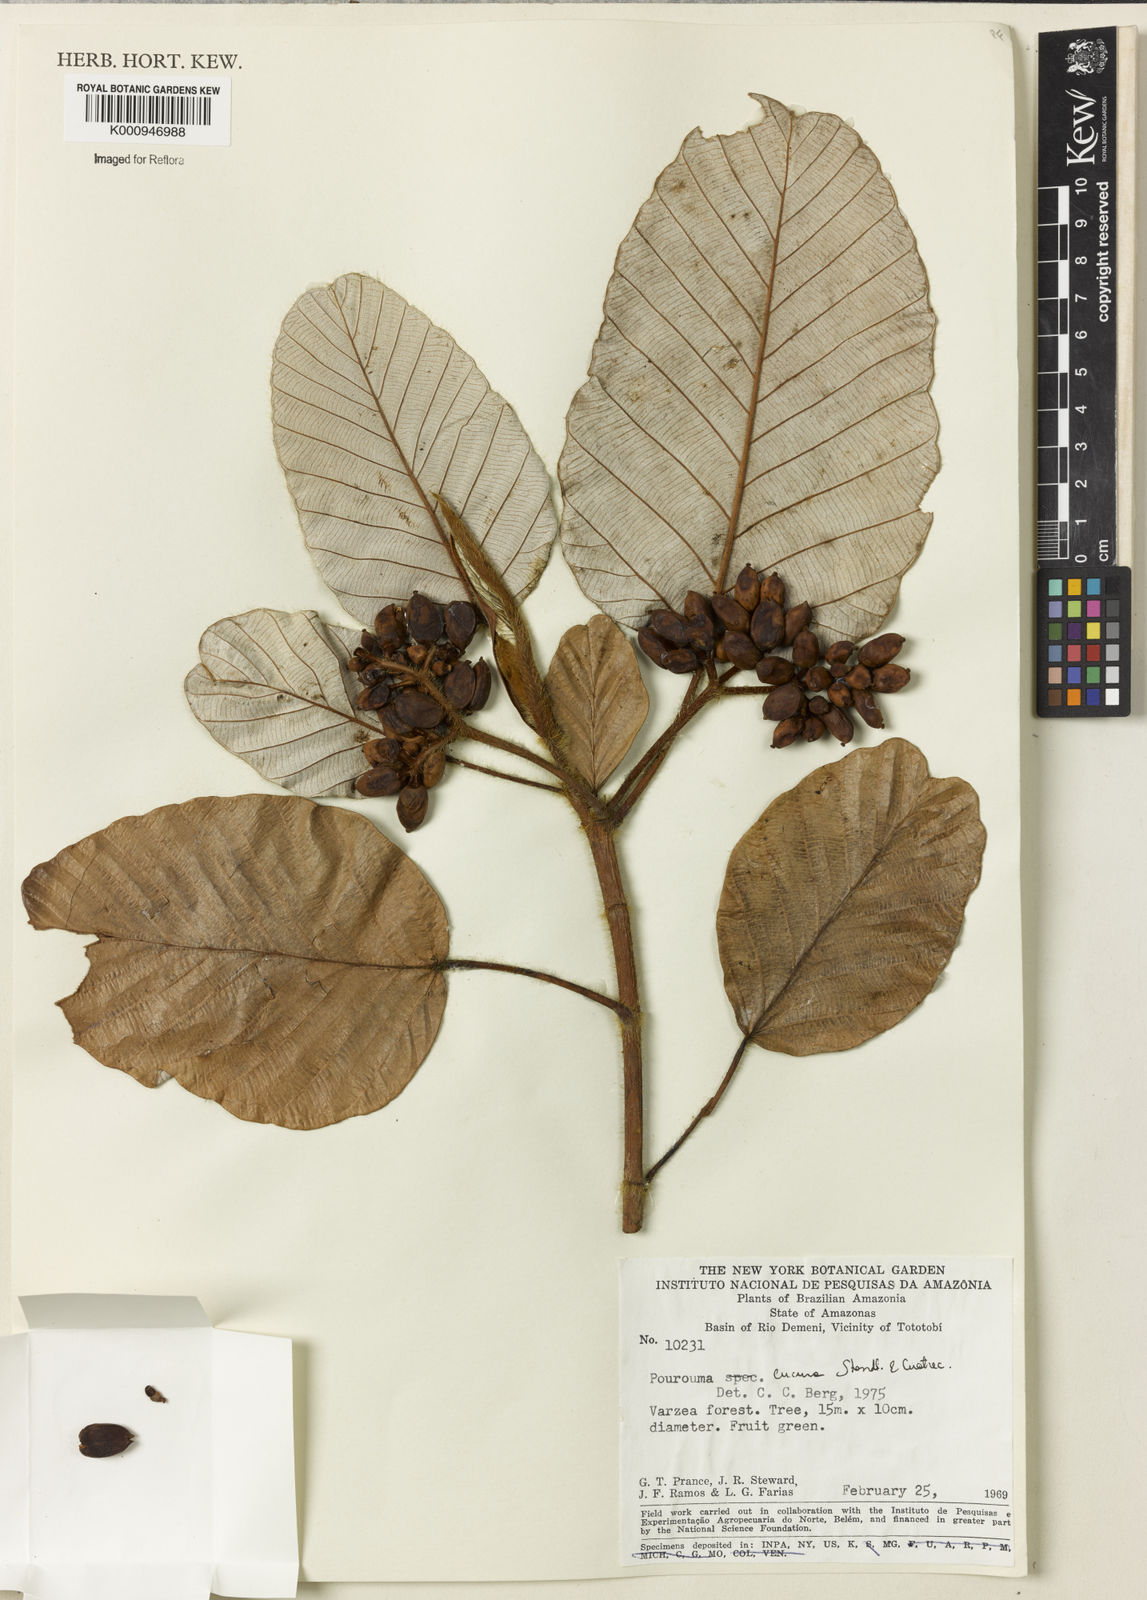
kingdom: Plantae
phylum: Tracheophyta
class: Magnoliopsida
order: Rosales
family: Urticaceae
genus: Pourouma
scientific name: Pourouma cucura
